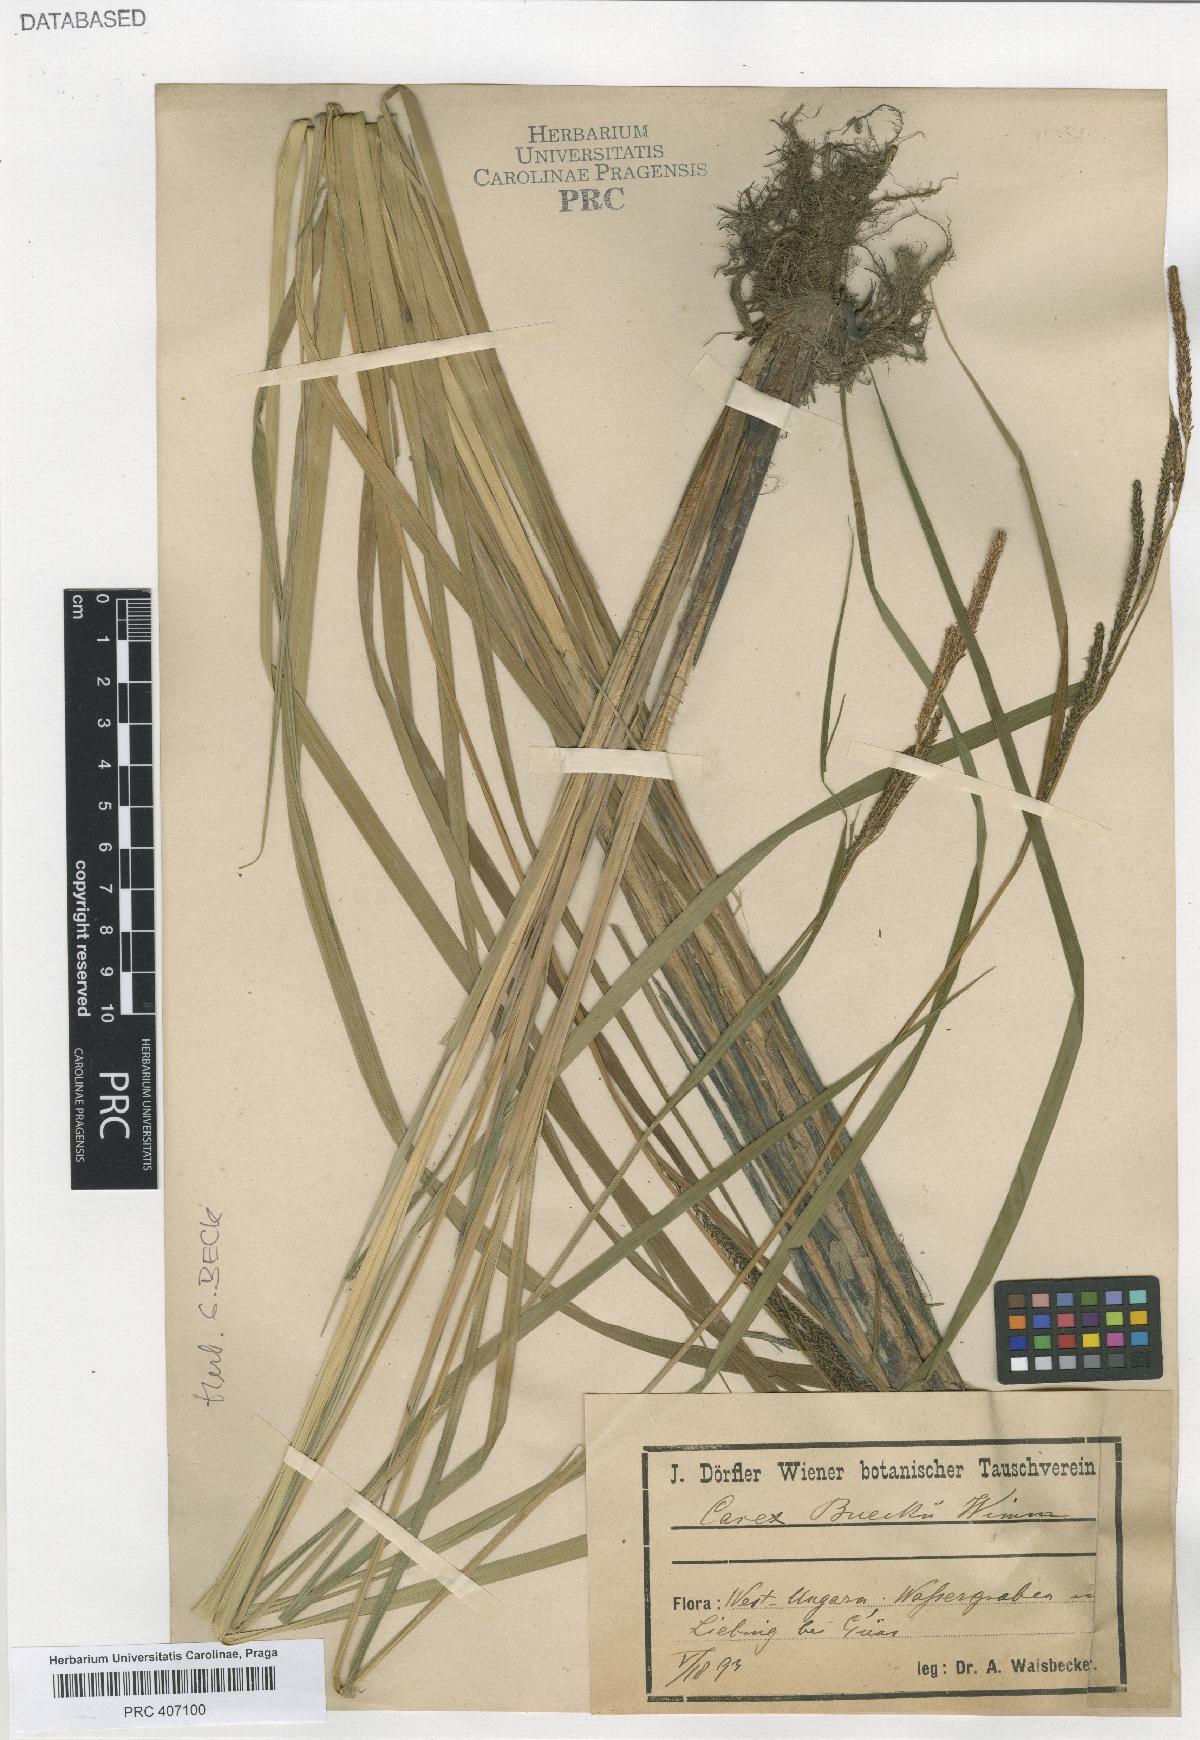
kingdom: Plantae
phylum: Tracheophyta
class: Liliopsida
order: Poales
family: Cyperaceae
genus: Carex
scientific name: Carex buekii
